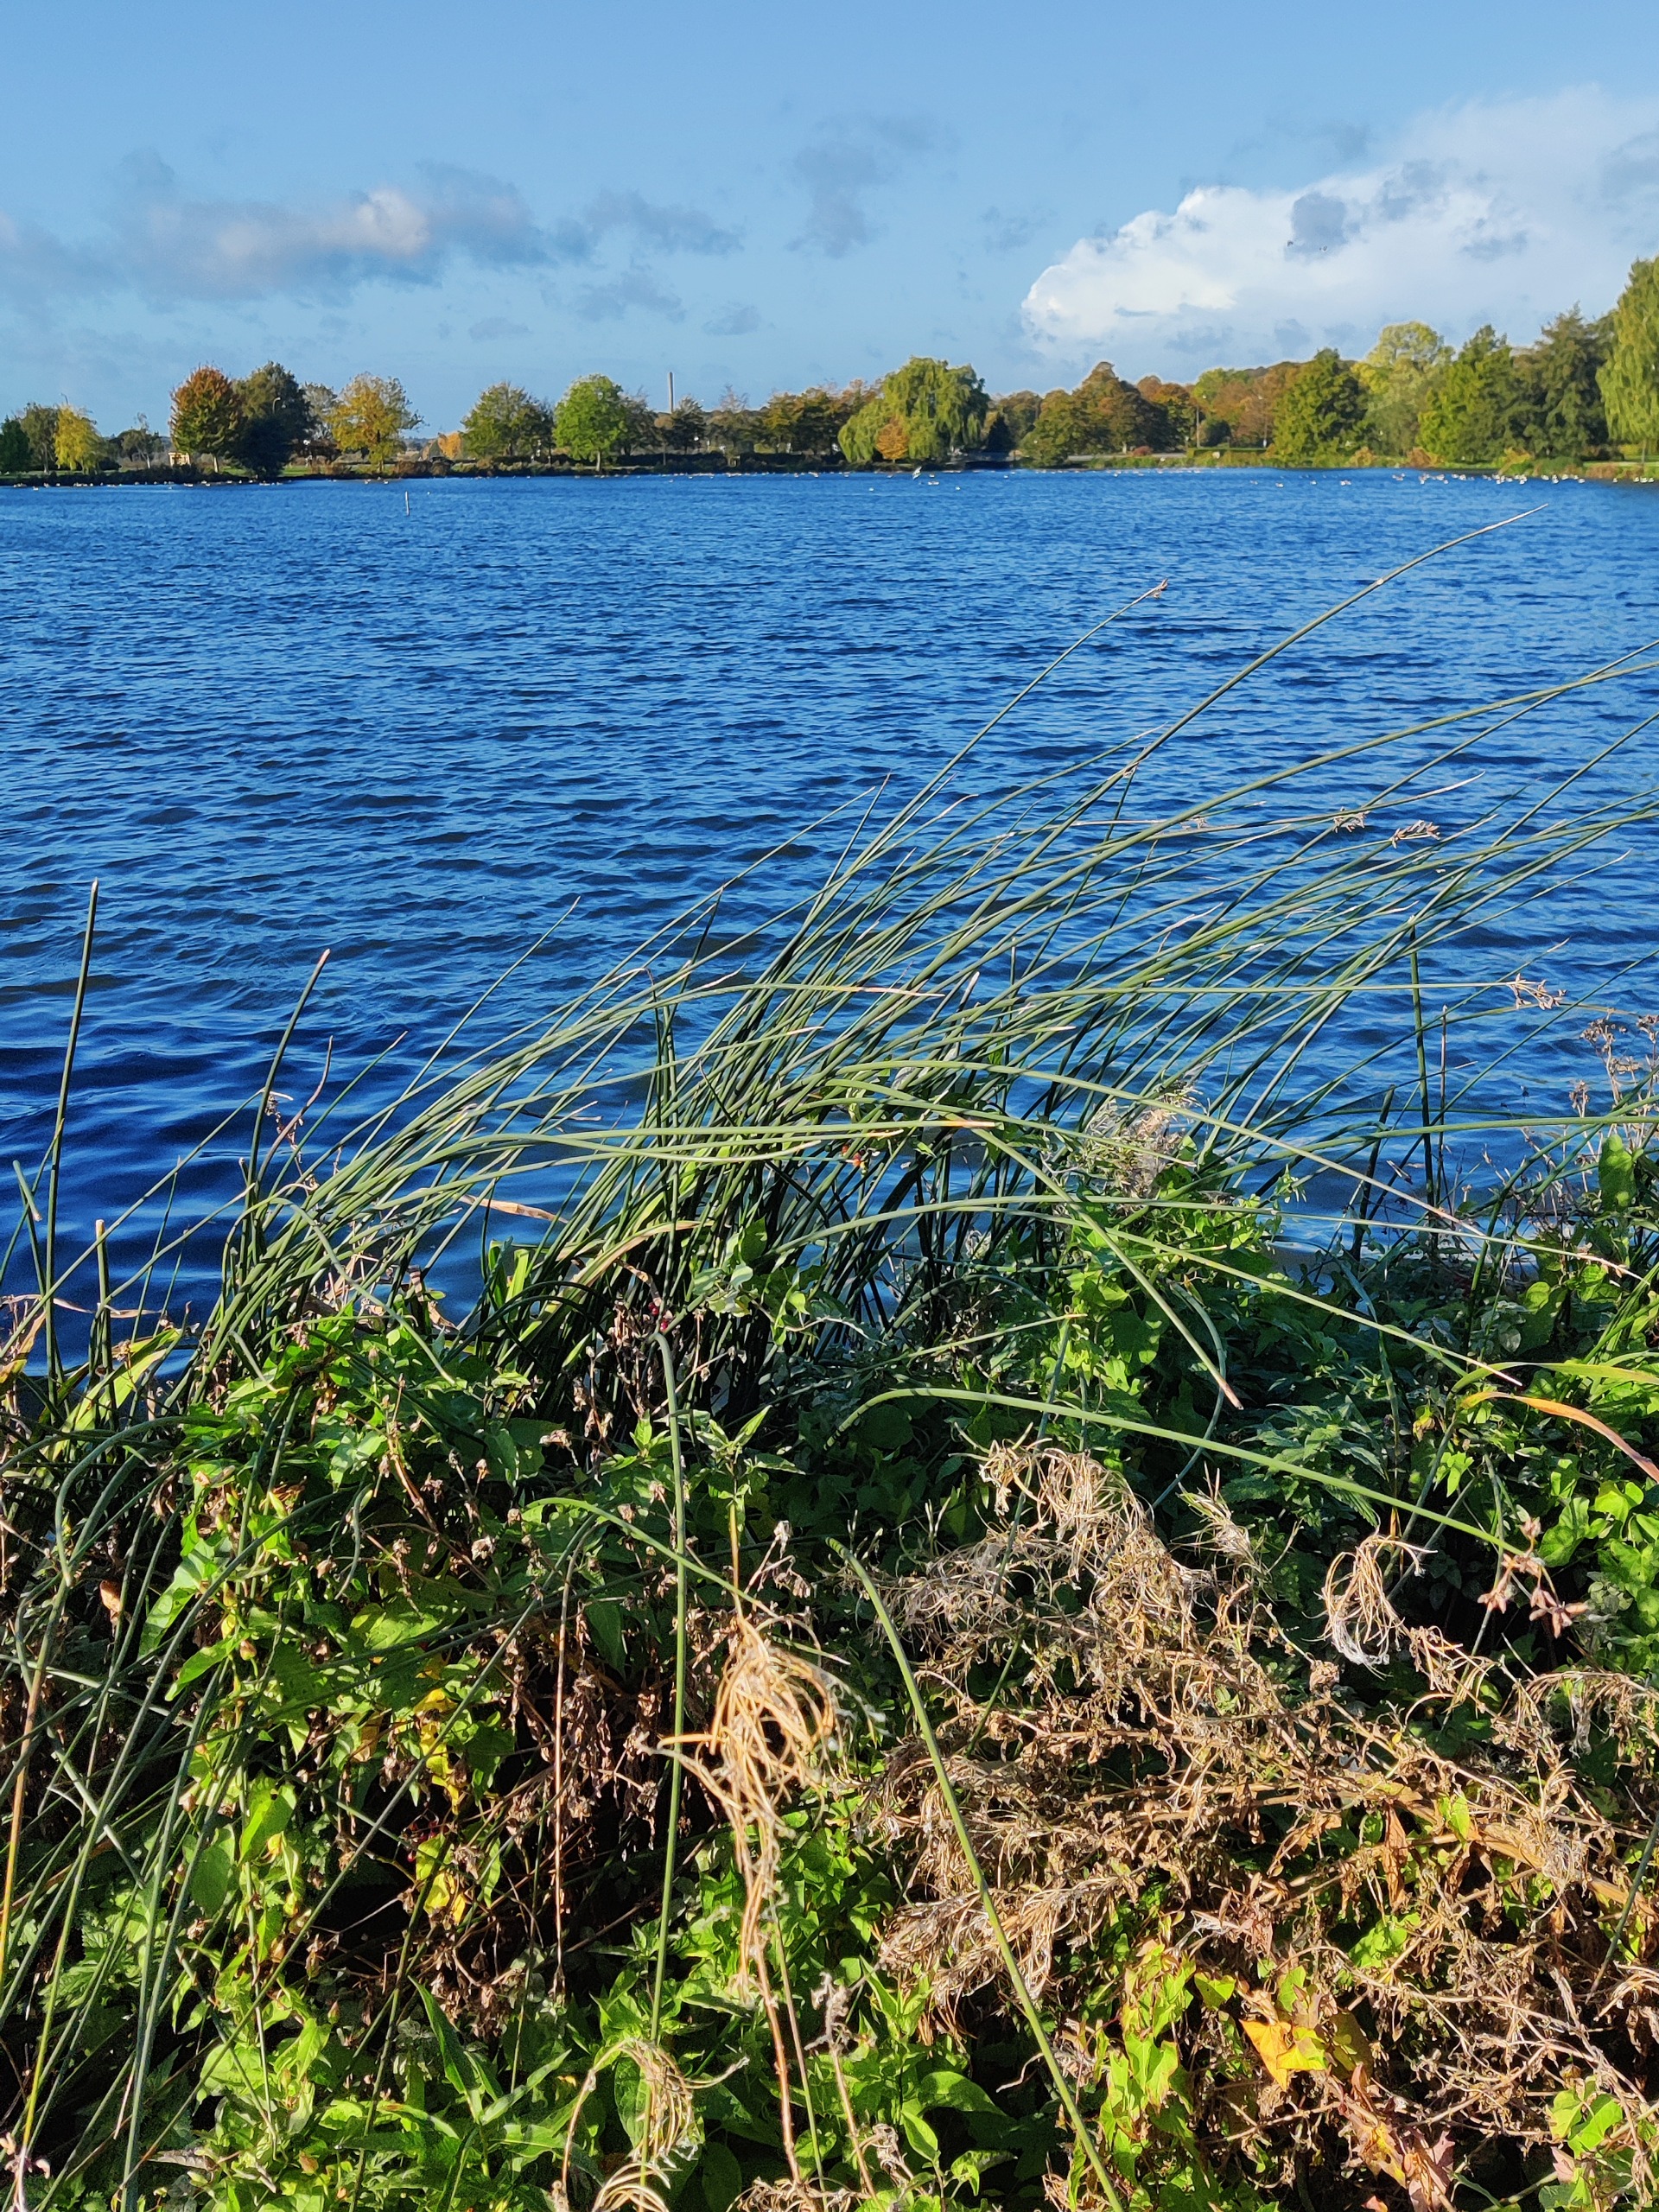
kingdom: Plantae
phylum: Tracheophyta
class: Liliopsida
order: Poales
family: Cyperaceae
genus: Schoenoplectus
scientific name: Schoenoplectus lacustris
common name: Sø-kogleaks
